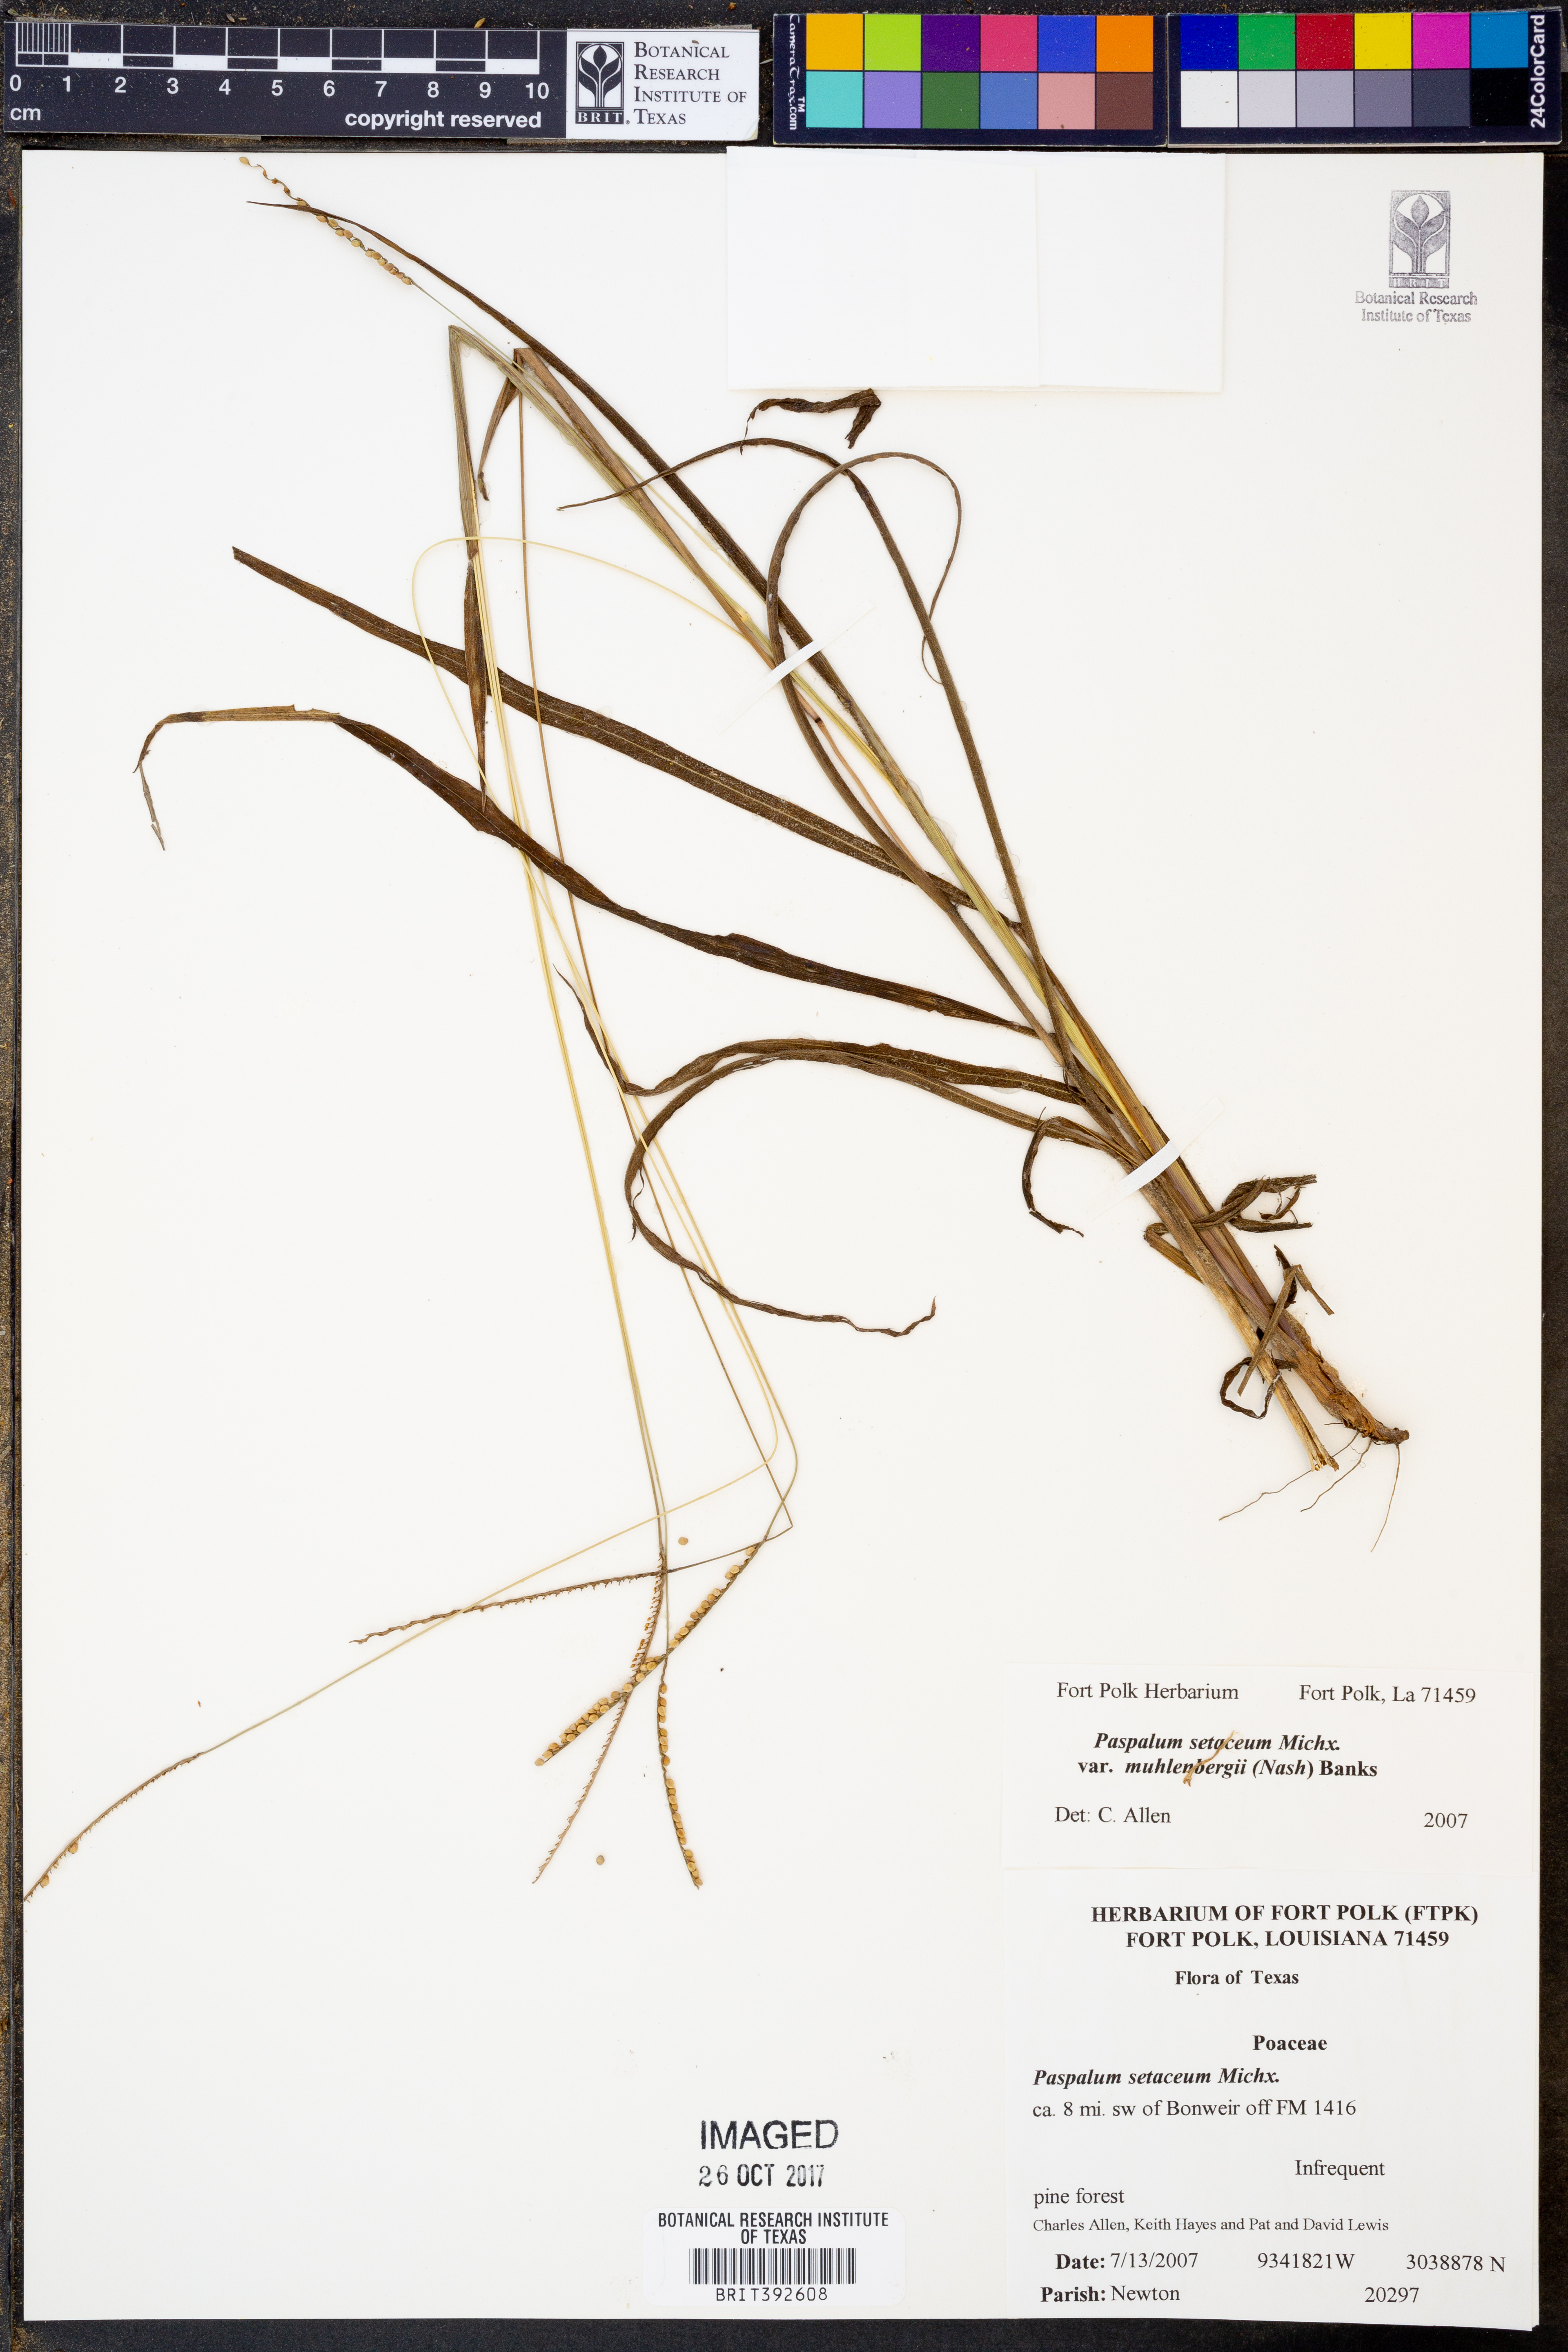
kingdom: Plantae
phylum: Tracheophyta
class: Liliopsida
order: Poales
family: Poaceae
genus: Paspalum
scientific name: Paspalum setaceum
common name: Slender paspalum
